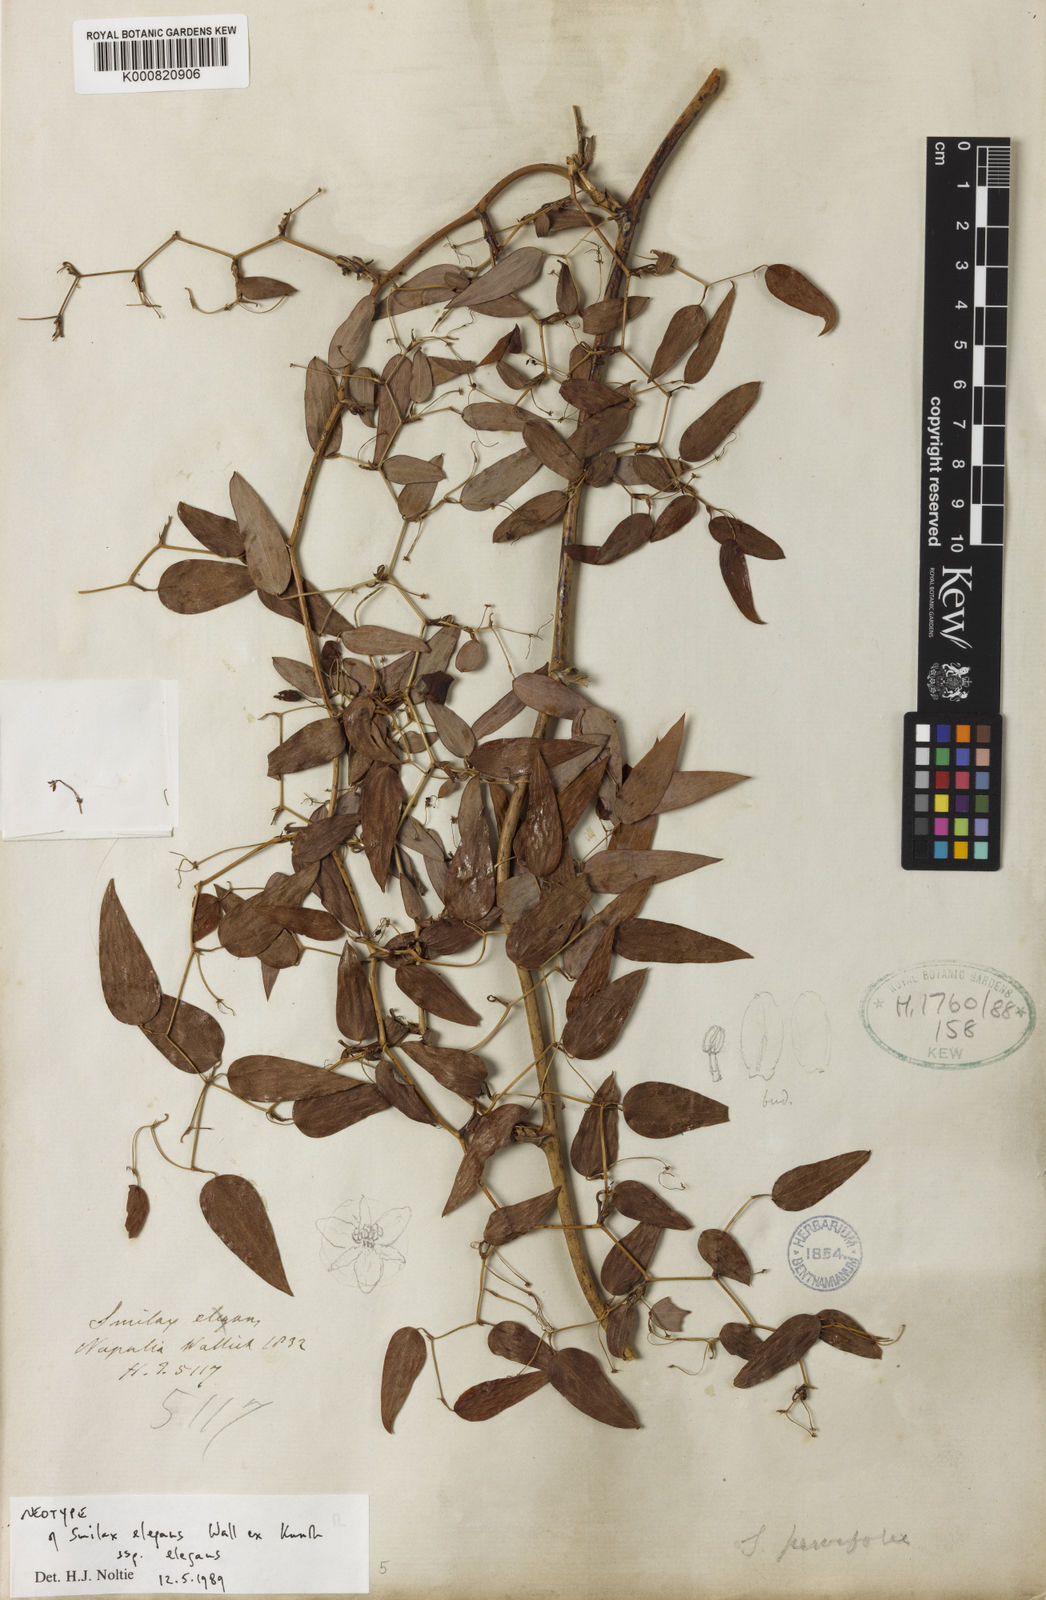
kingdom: Plantae
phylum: Tracheophyta
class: Liliopsida
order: Liliales
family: Smilacaceae
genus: Smilax
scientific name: Smilax elegans
